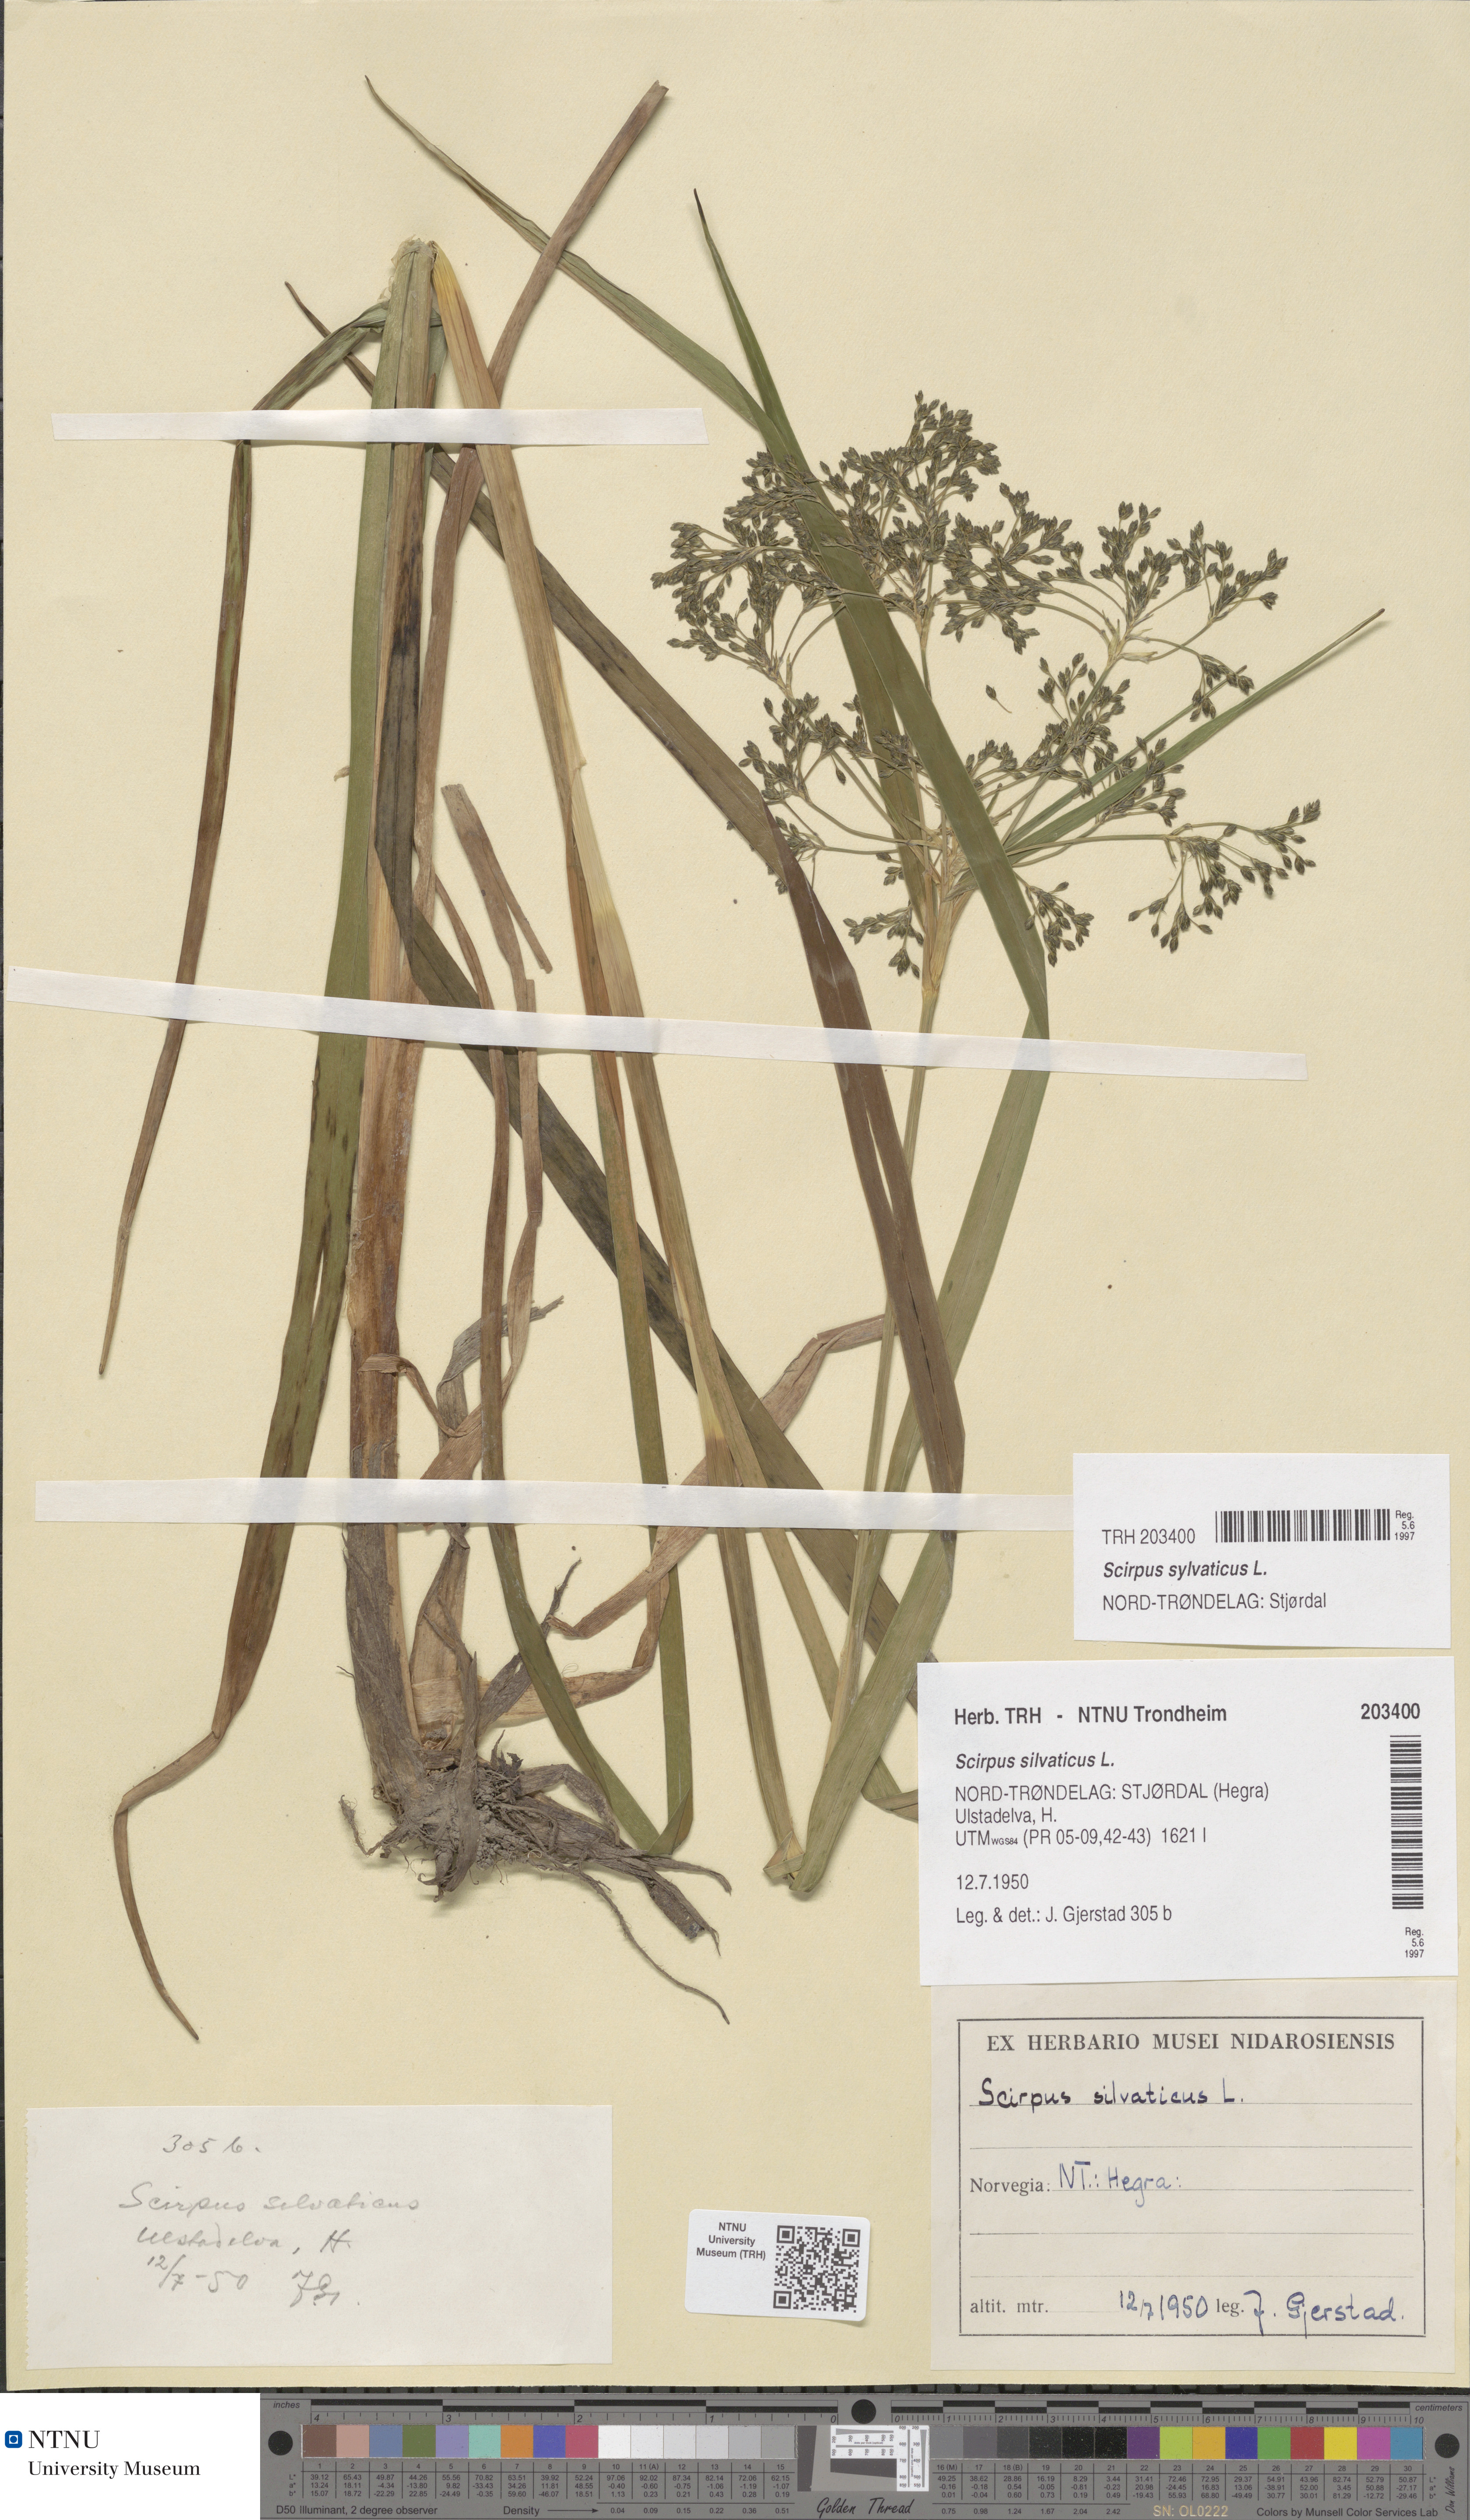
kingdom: Plantae
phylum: Tracheophyta
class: Liliopsida
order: Poales
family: Cyperaceae
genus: Scirpus
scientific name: Scirpus sylvaticus
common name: Wood club-rush
